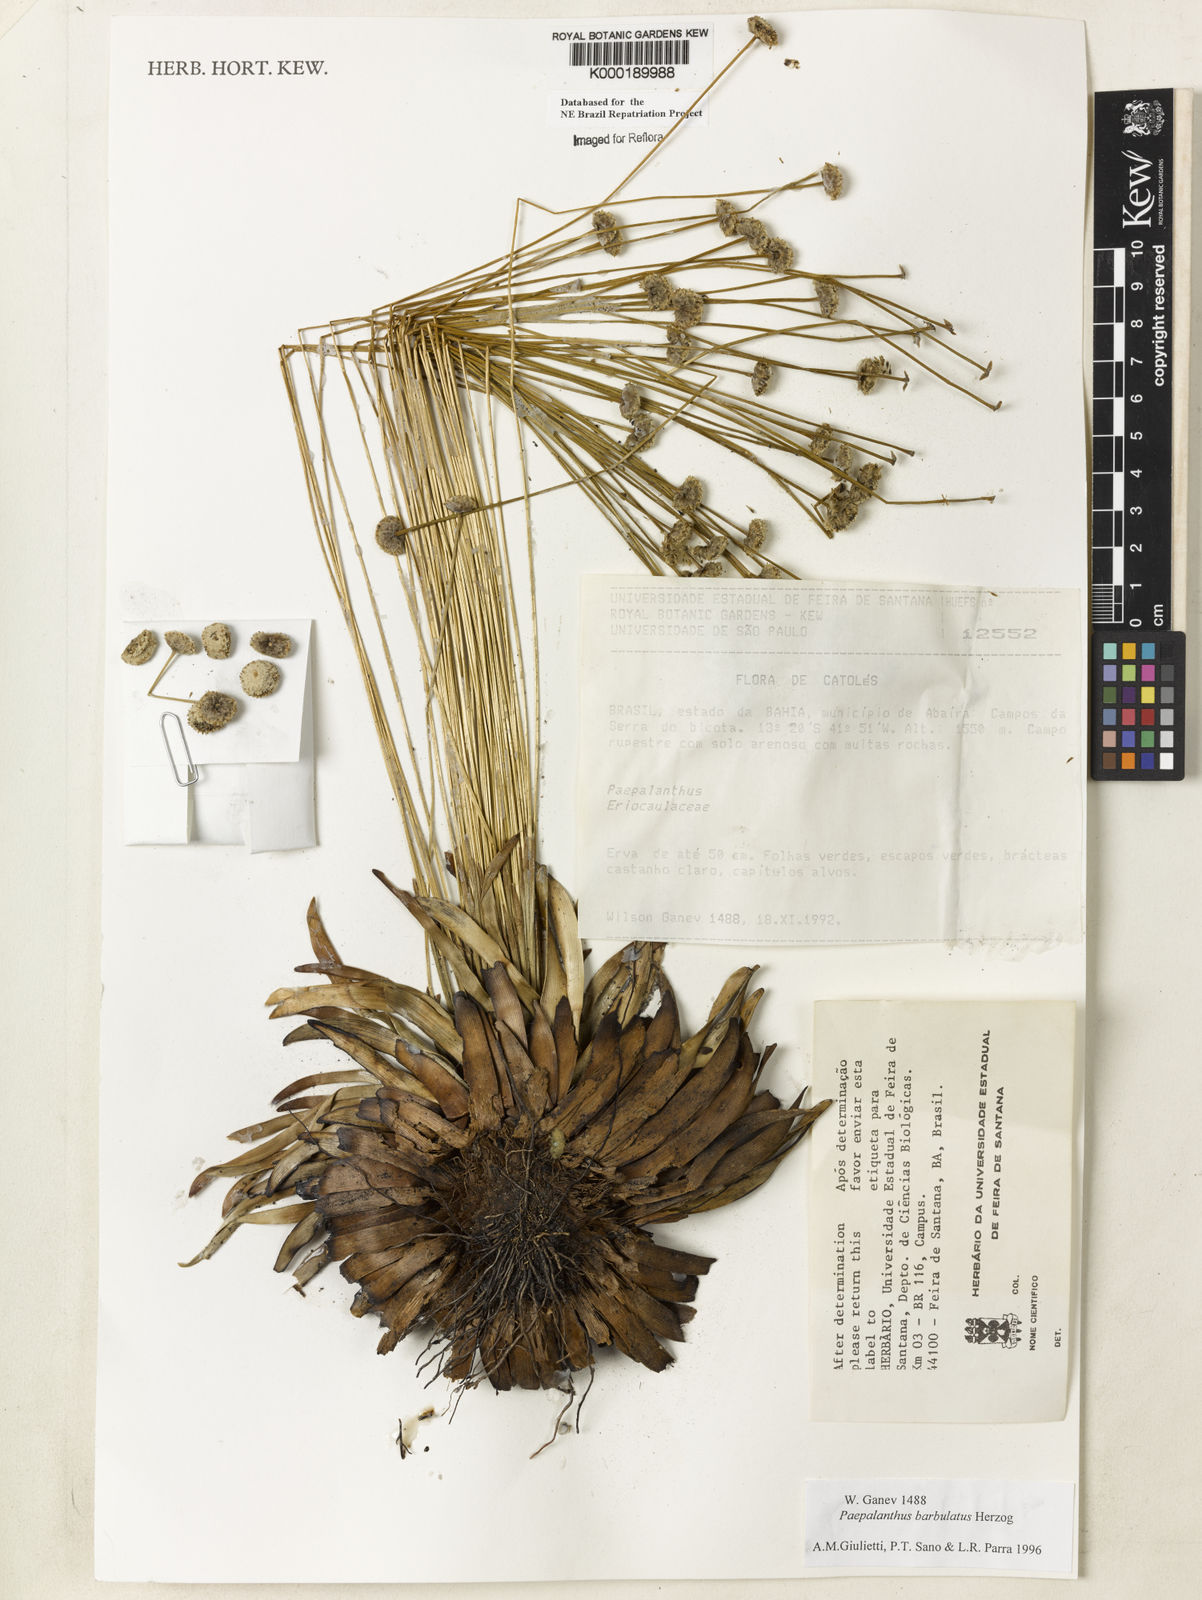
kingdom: Plantae
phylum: Tracheophyta
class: Liliopsida
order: Poales
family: Eriocaulaceae
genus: Paepalanthus
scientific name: Paepalanthus barbulatus
